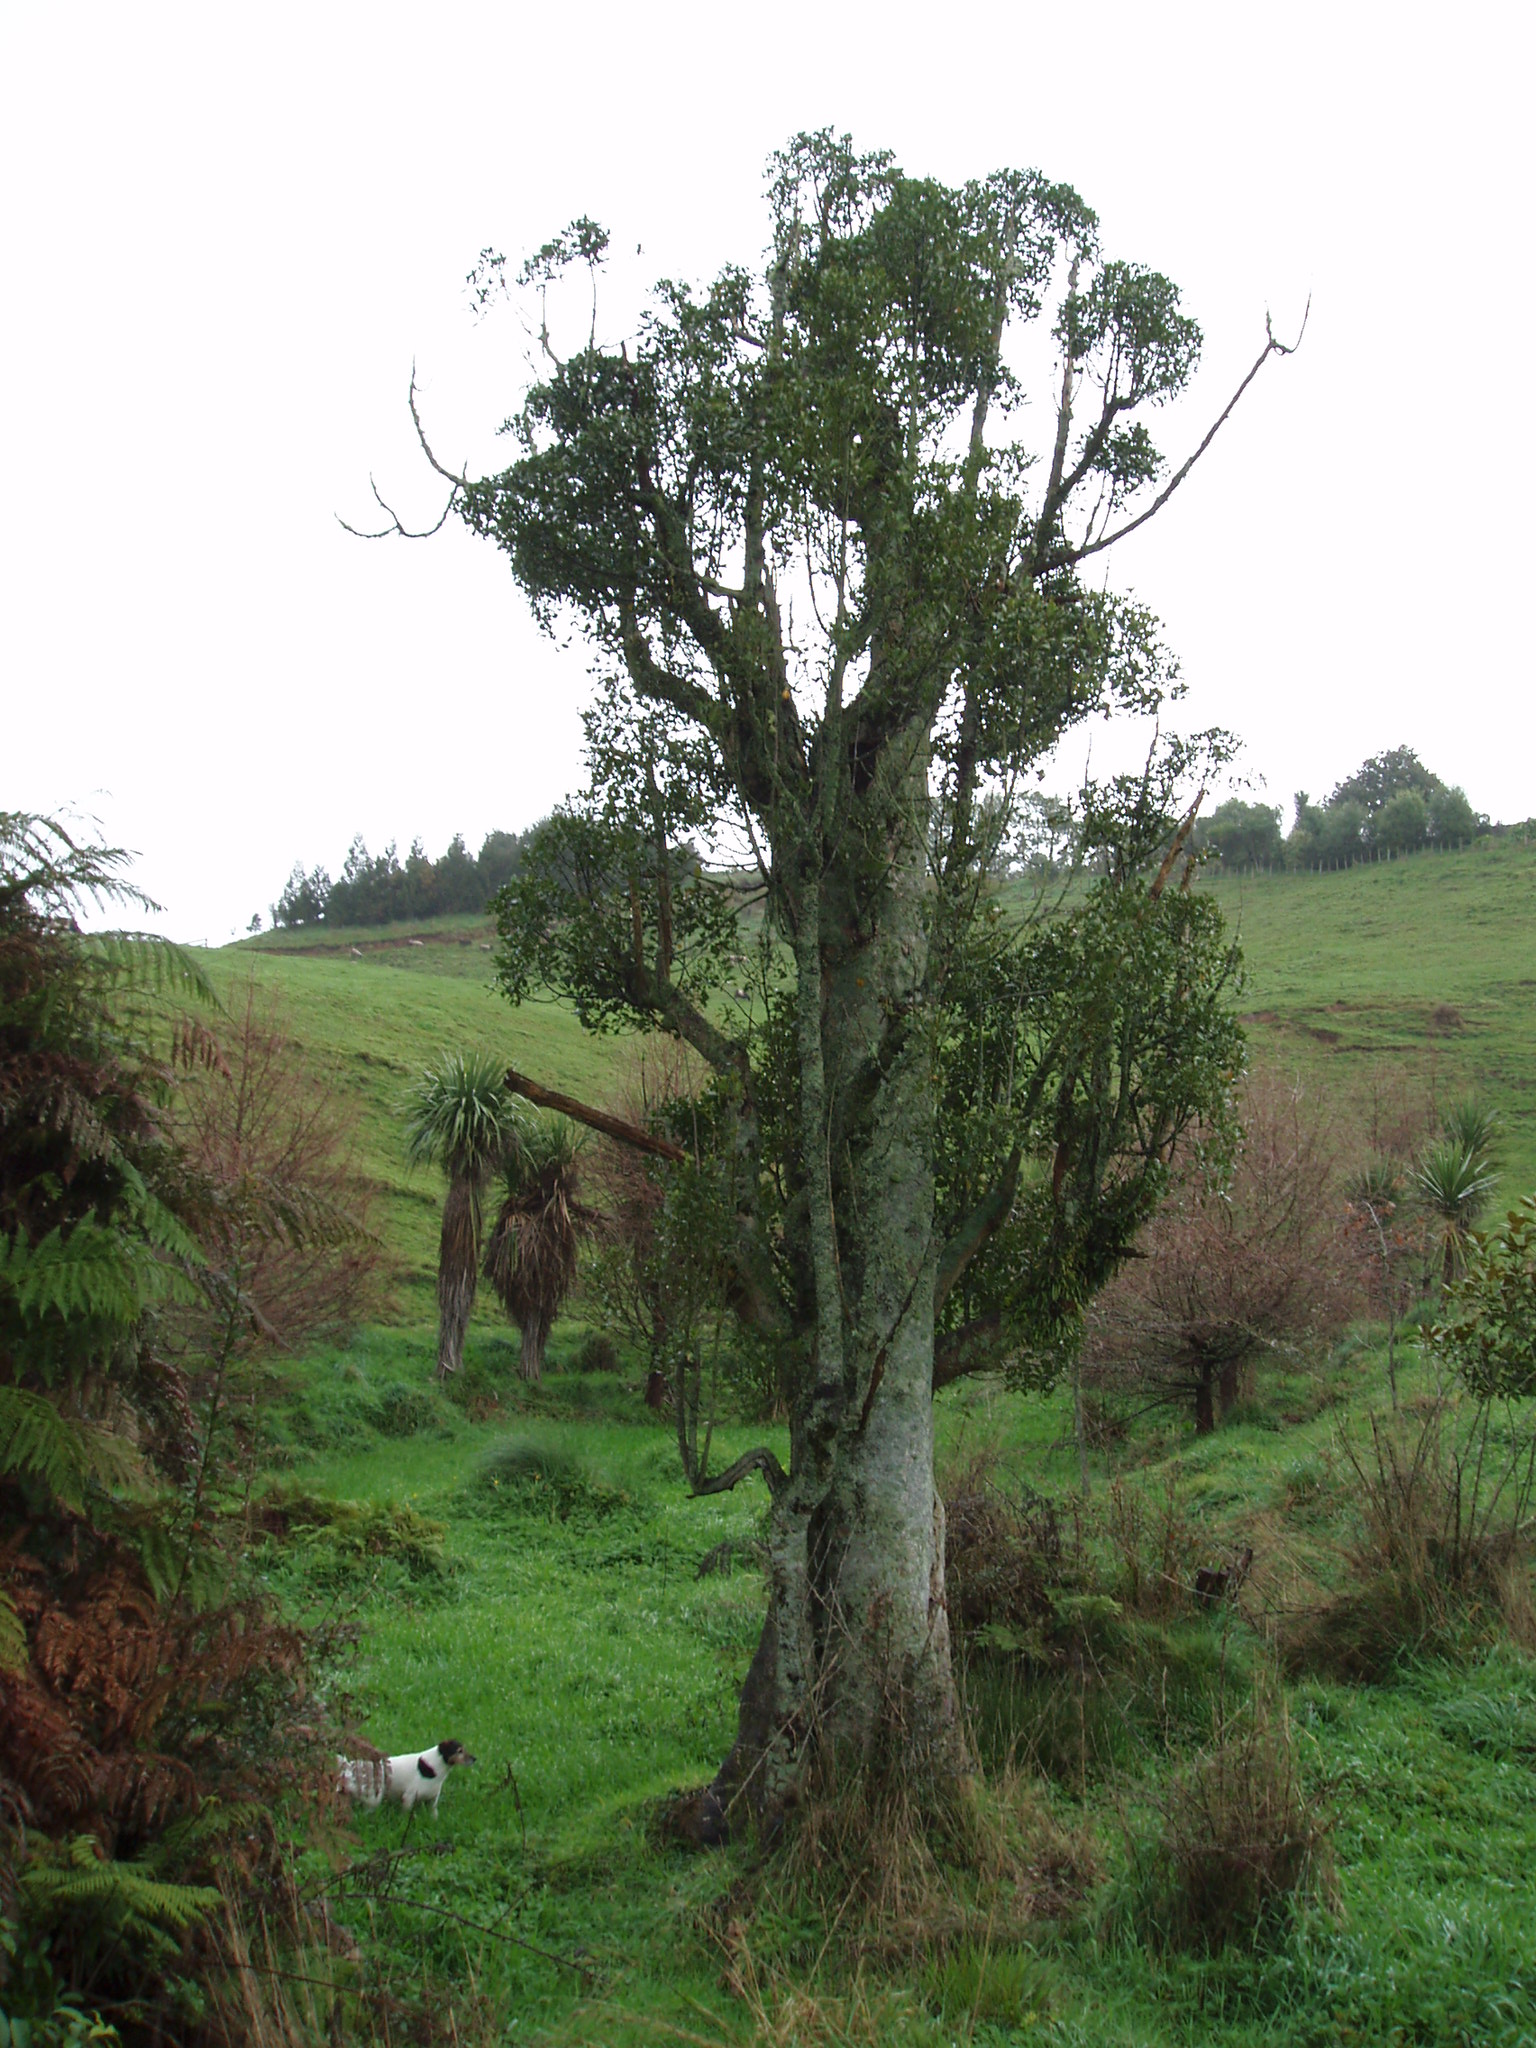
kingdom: Plantae
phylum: Tracheophyta
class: Magnoliopsida
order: Laurales
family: Atherospermataceae
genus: Laurelia
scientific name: Laurelia novae-zelandiae
